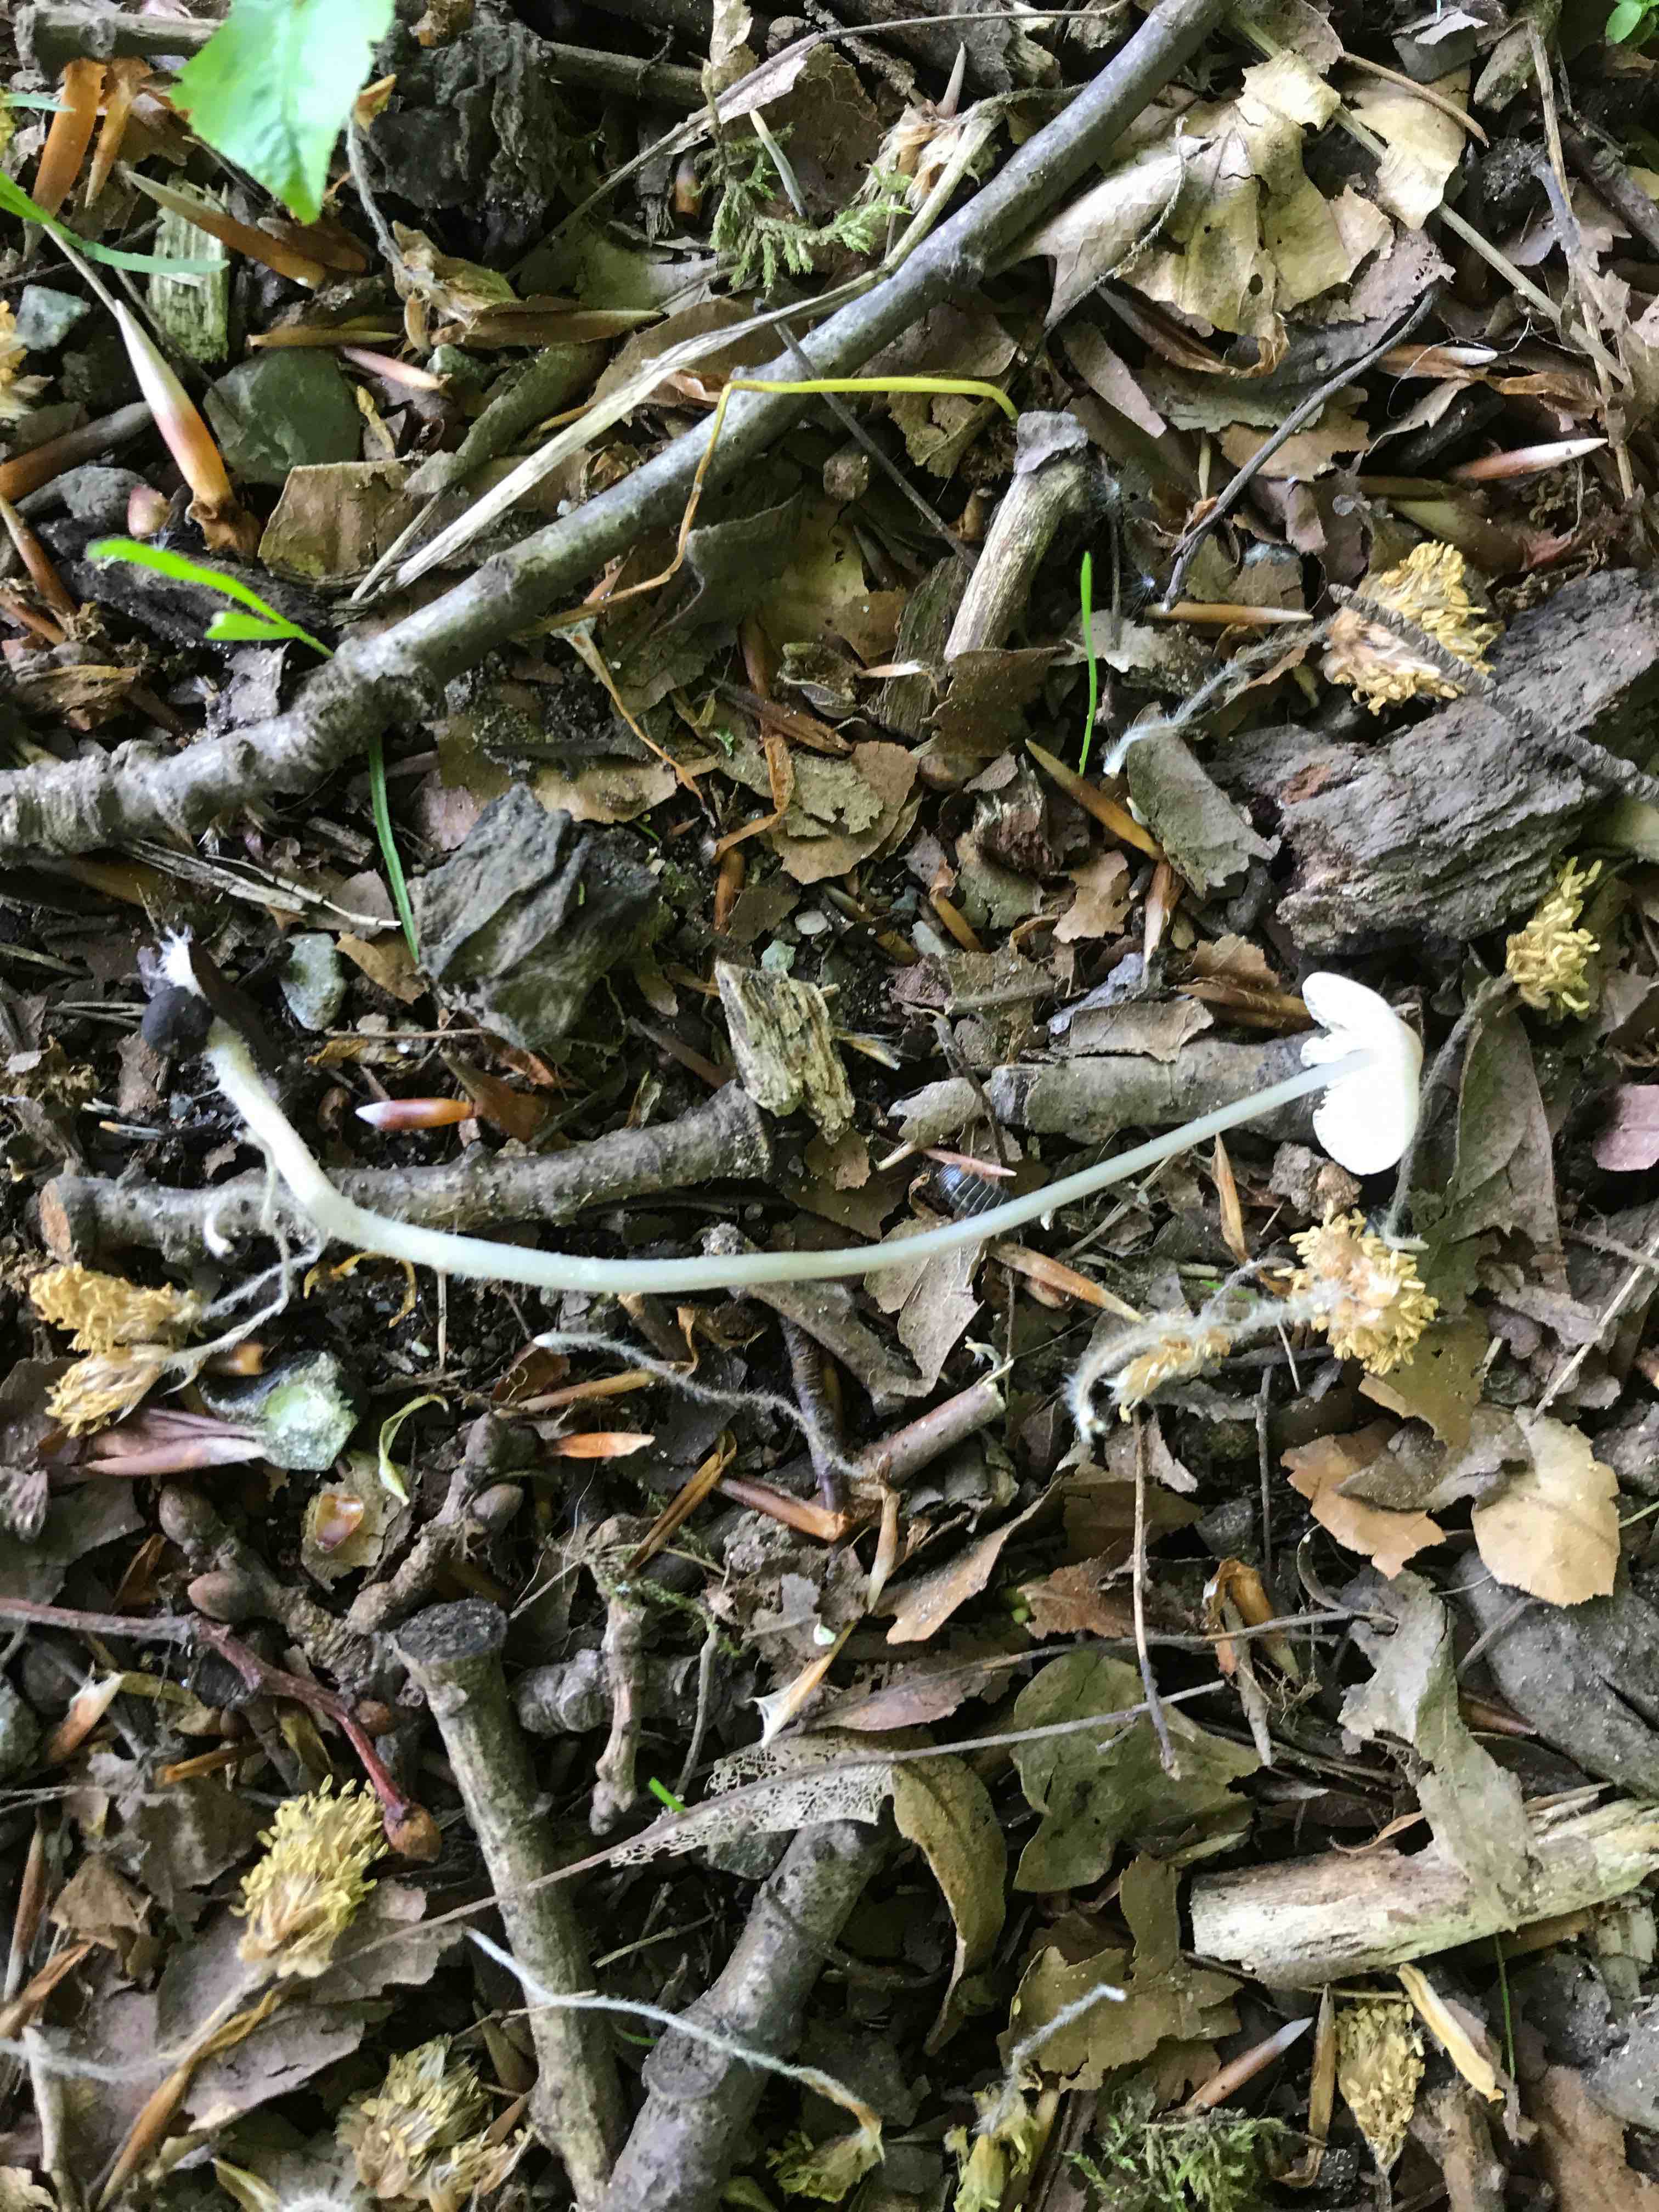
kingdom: Fungi
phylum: Basidiomycota
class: Agaricomycetes
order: Agaricales
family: Mycenaceae
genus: Mycena
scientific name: Mycena vitilis
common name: blankstokket huesvamp
